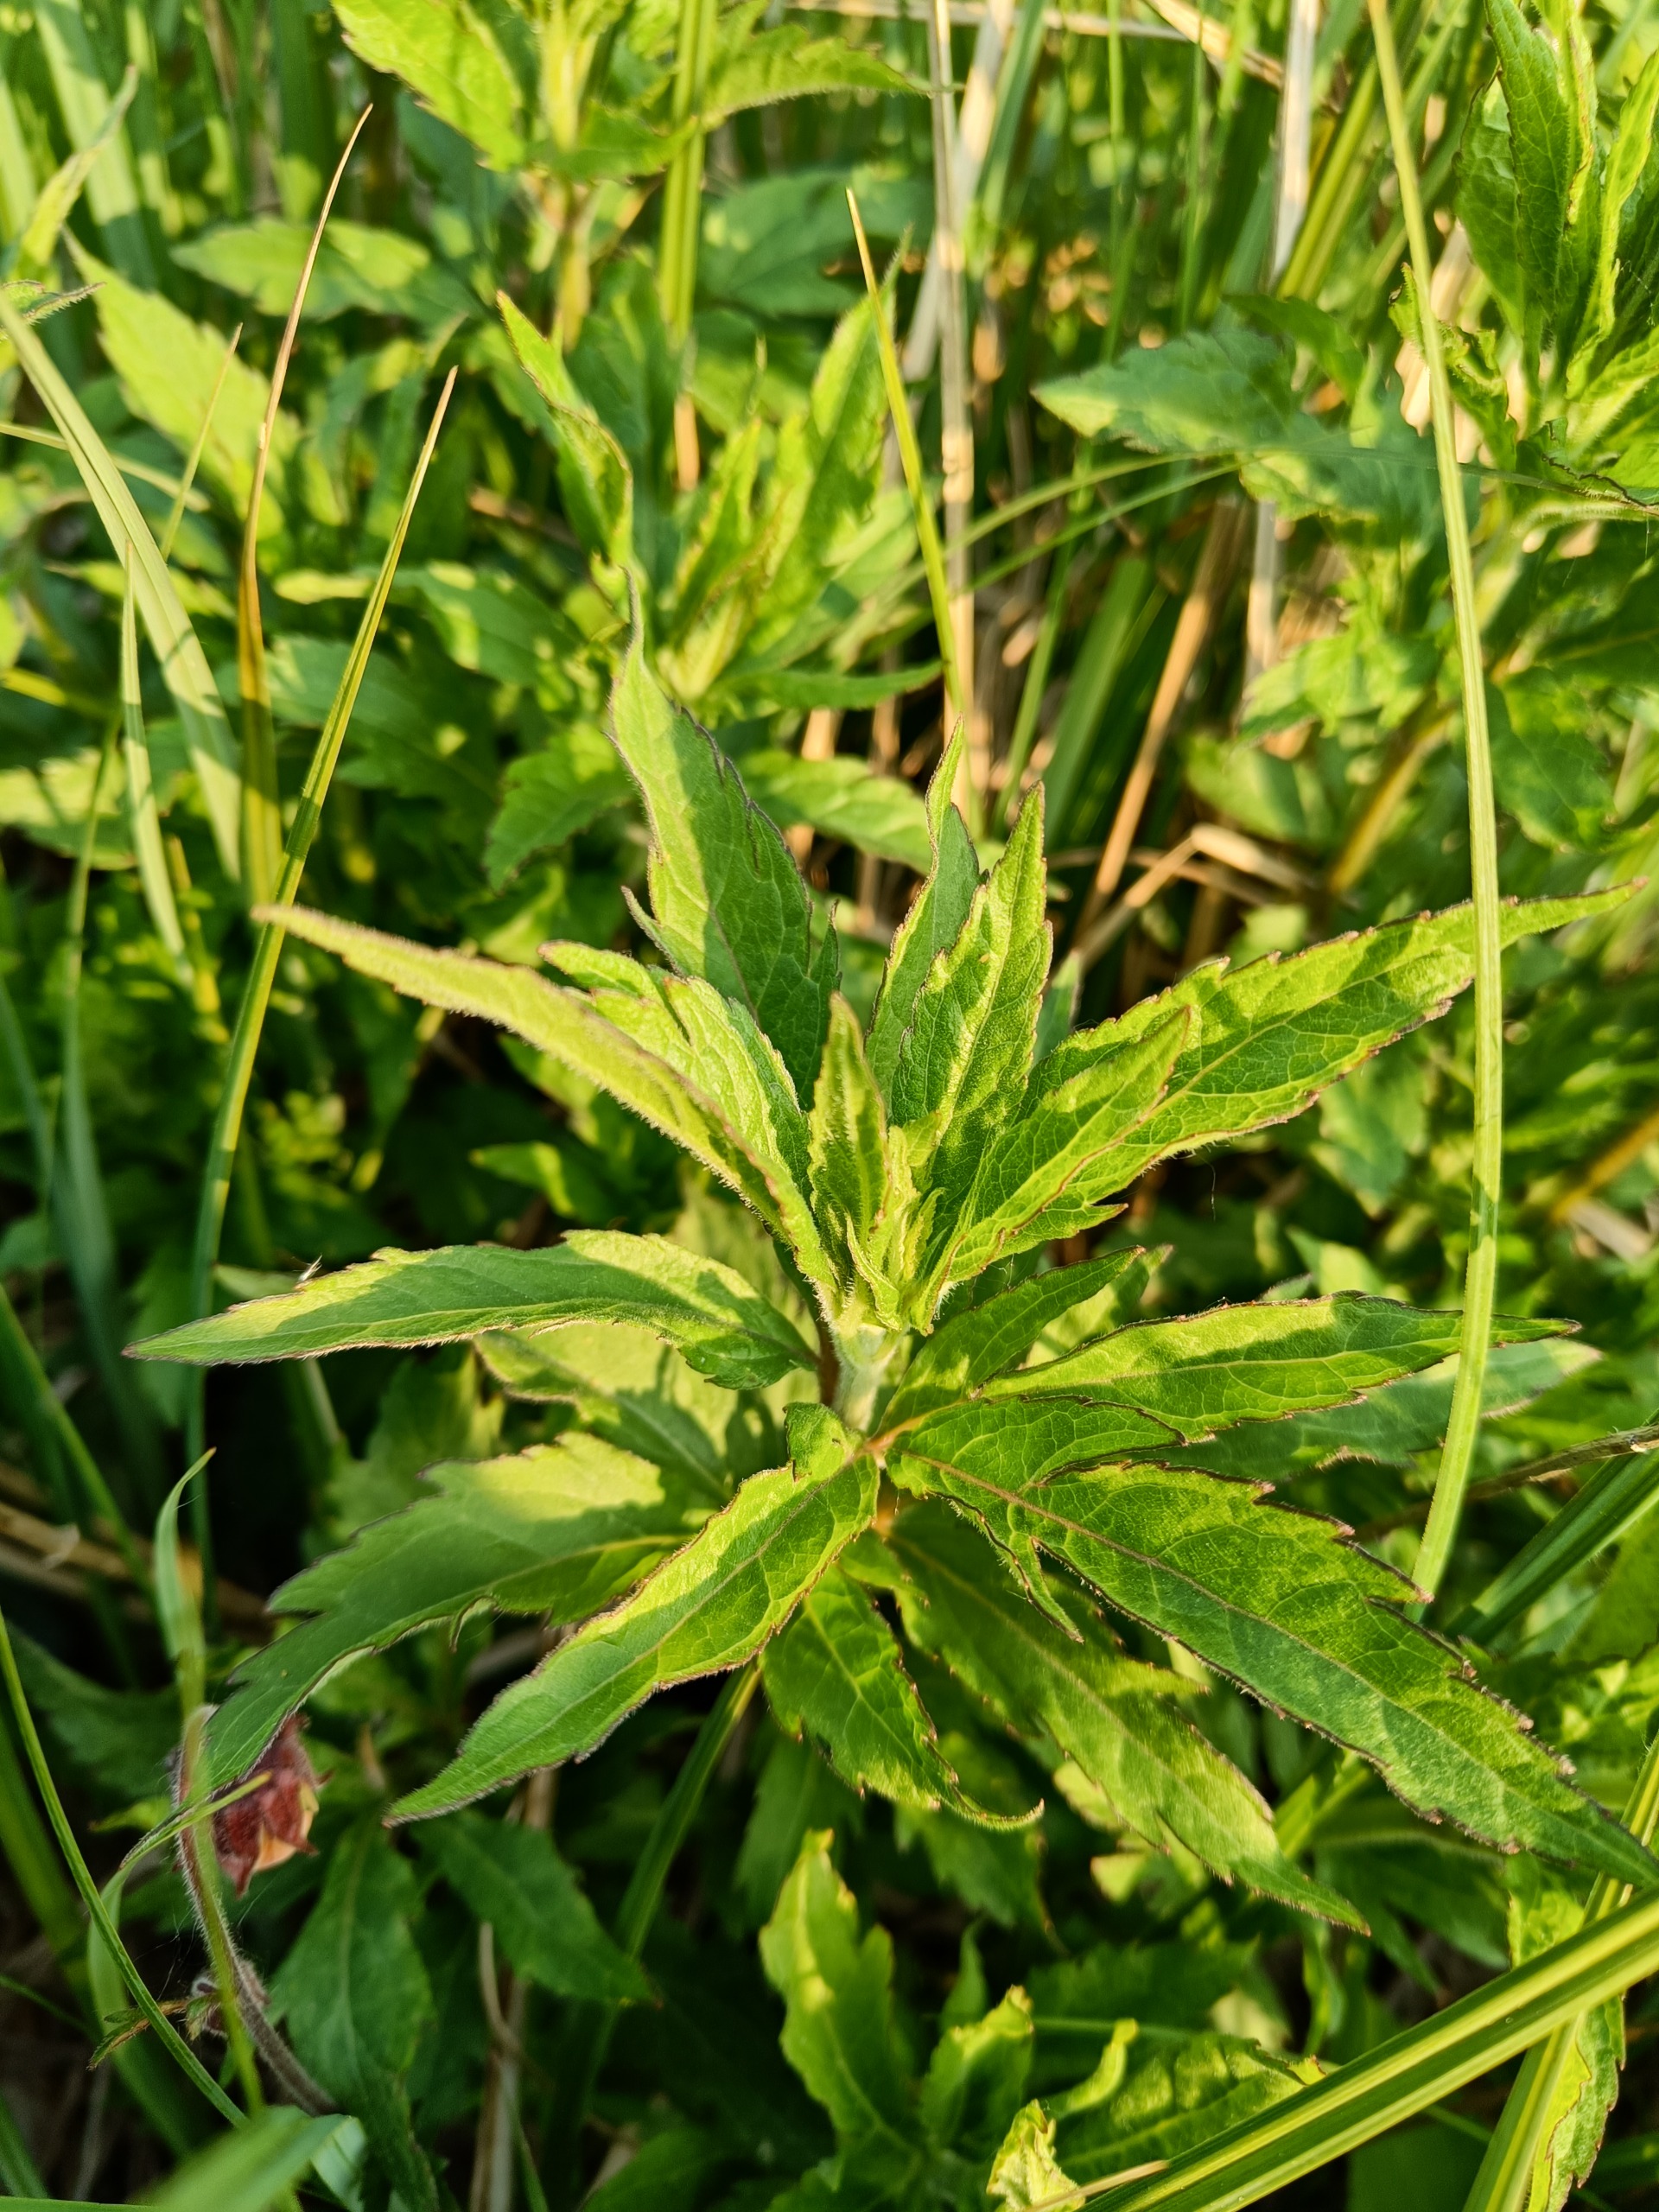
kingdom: Plantae
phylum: Tracheophyta
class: Magnoliopsida
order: Asterales
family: Asteraceae
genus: Eupatorium
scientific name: Eupatorium cannabinum
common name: Hjortetrøst
